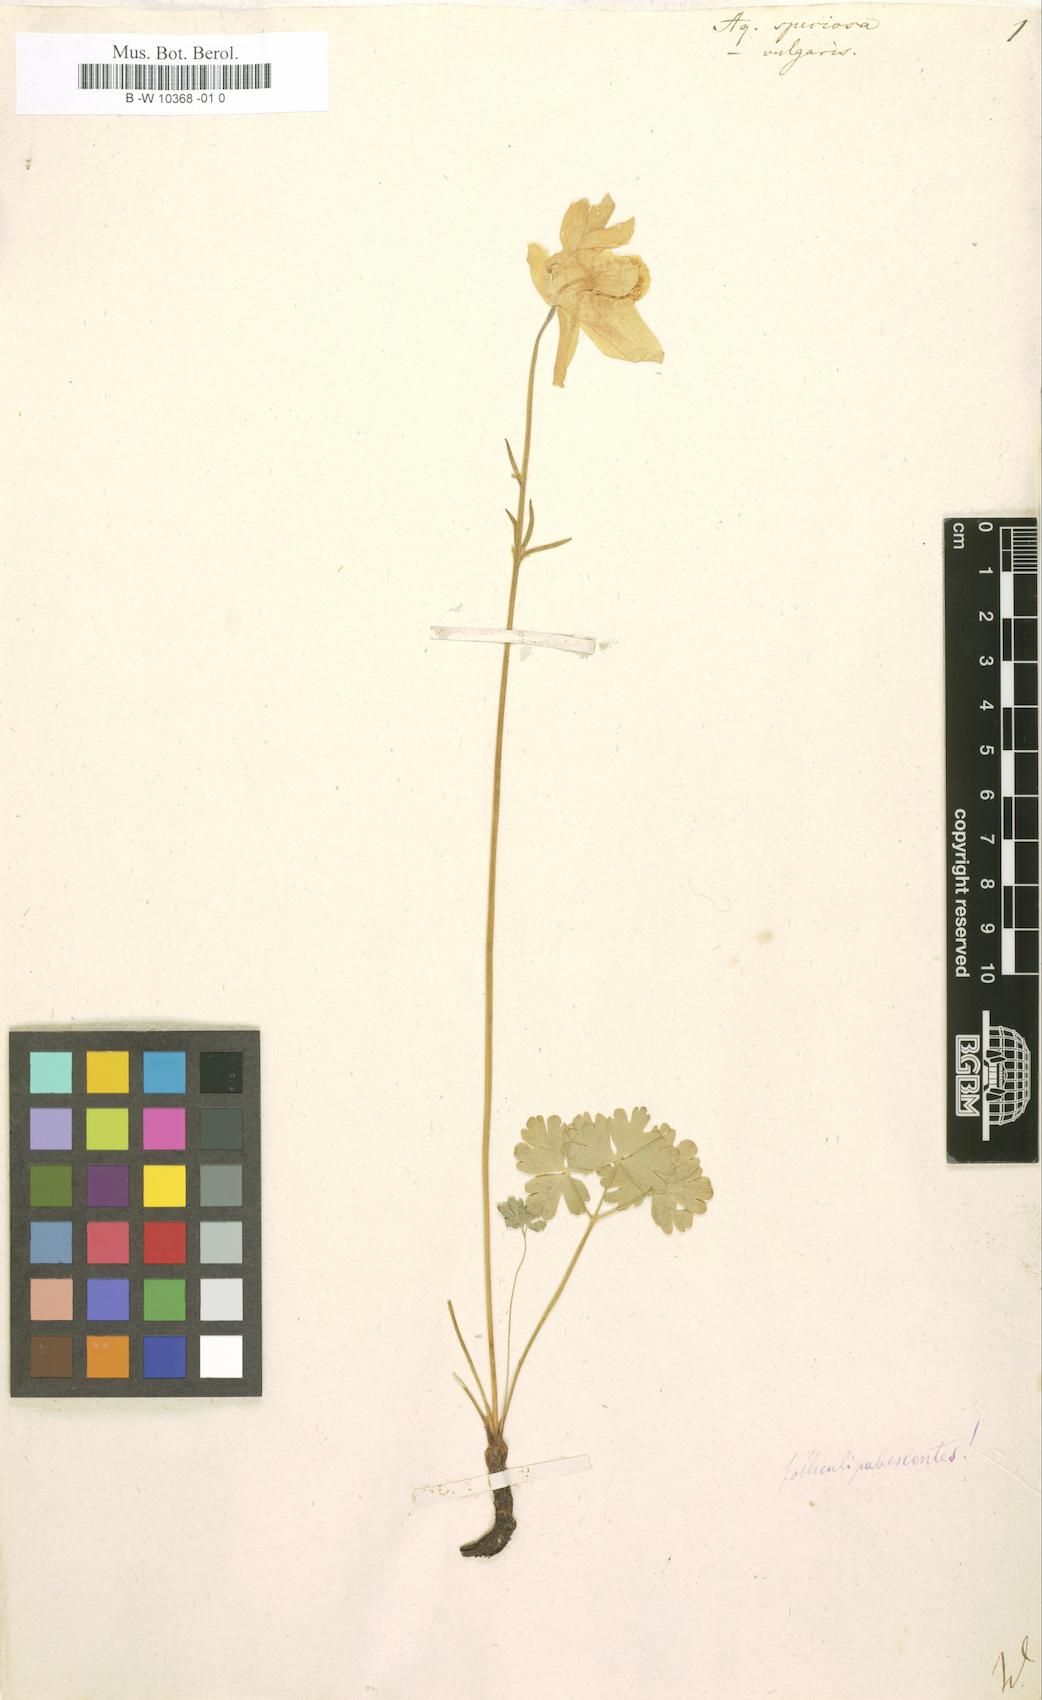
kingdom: Plantae
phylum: Tracheophyta
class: Magnoliopsida
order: Ranunculales
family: Ranunculaceae
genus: Aquilegia
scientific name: Aquilegia
